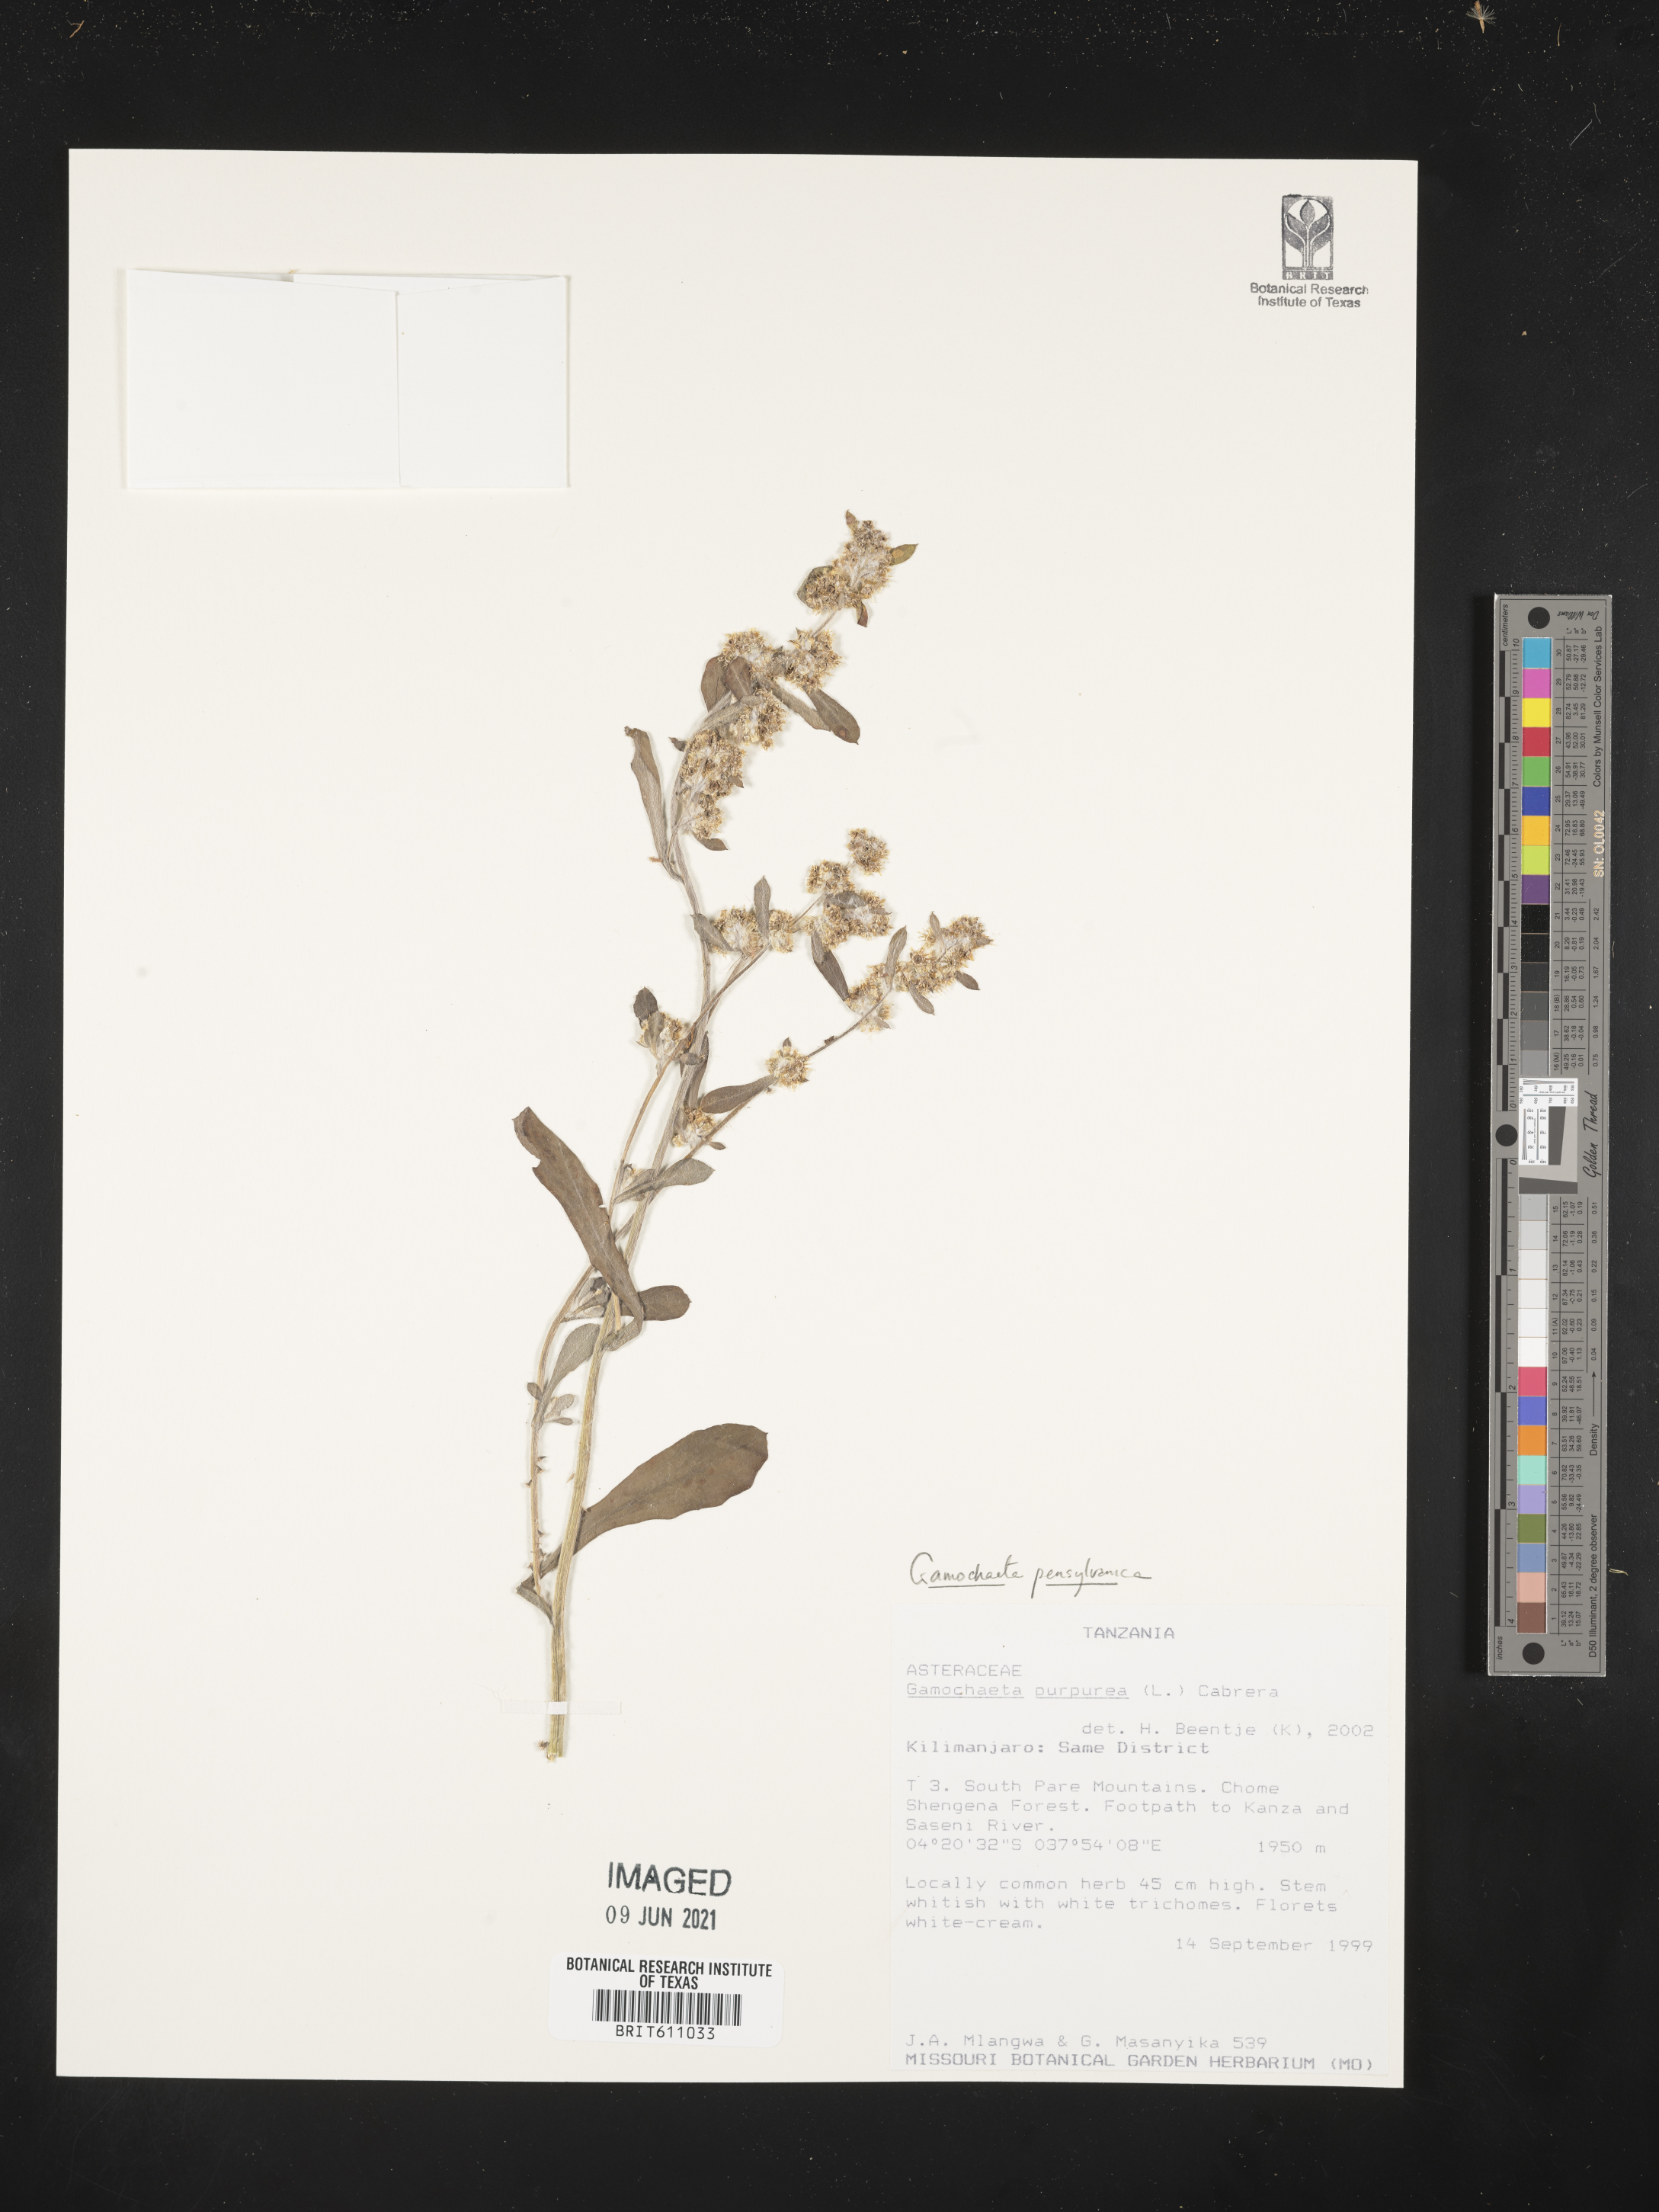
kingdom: Plantae
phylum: Tracheophyta
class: Magnoliopsida
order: Asterales
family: Asteraceae
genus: Gamochaeta
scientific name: Gamochaeta pensylvanica
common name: Pennsylvania everlasting
